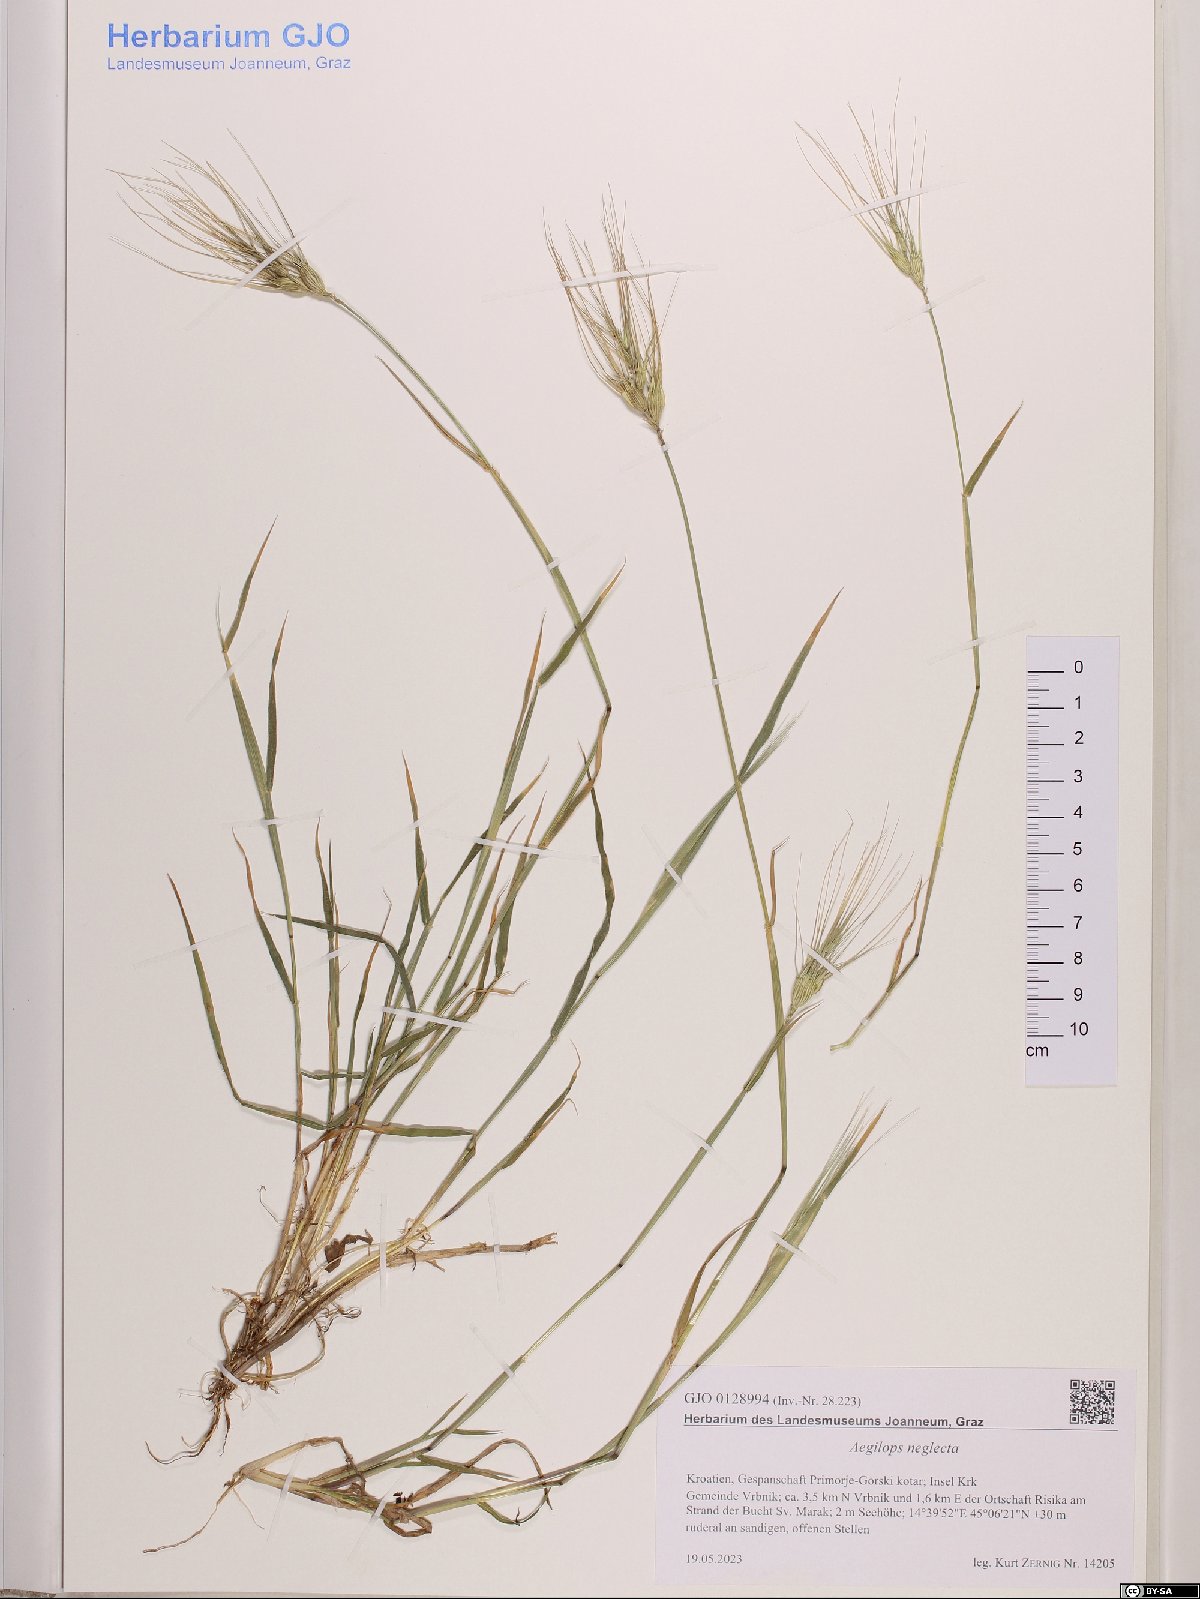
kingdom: Plantae
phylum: Tracheophyta
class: Liliopsida
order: Poales
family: Poaceae
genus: Aegilops
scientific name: Aegilops neglecta
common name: Three-awn goat grass
